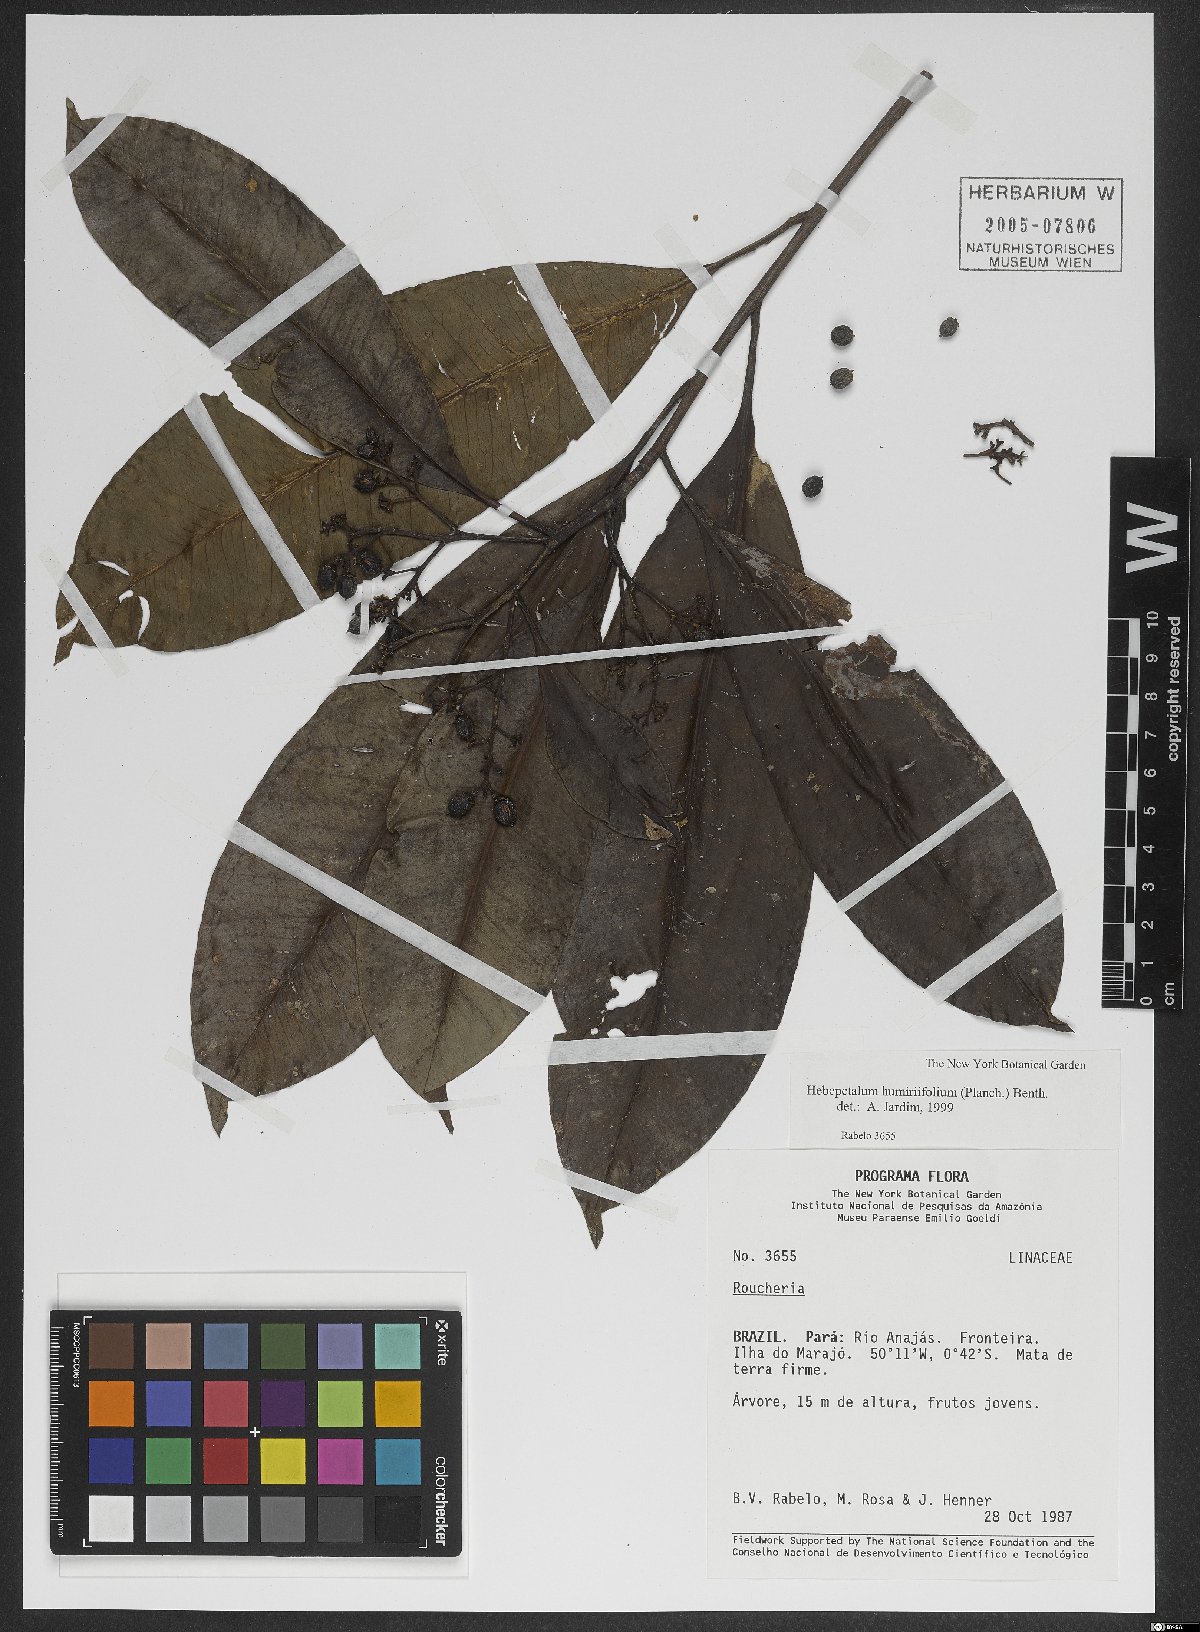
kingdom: Plantae
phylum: Tracheophyta
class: Magnoliopsida
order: Malpighiales
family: Linaceae
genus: Hebepetalum
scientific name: Hebepetalum humiriifolium
